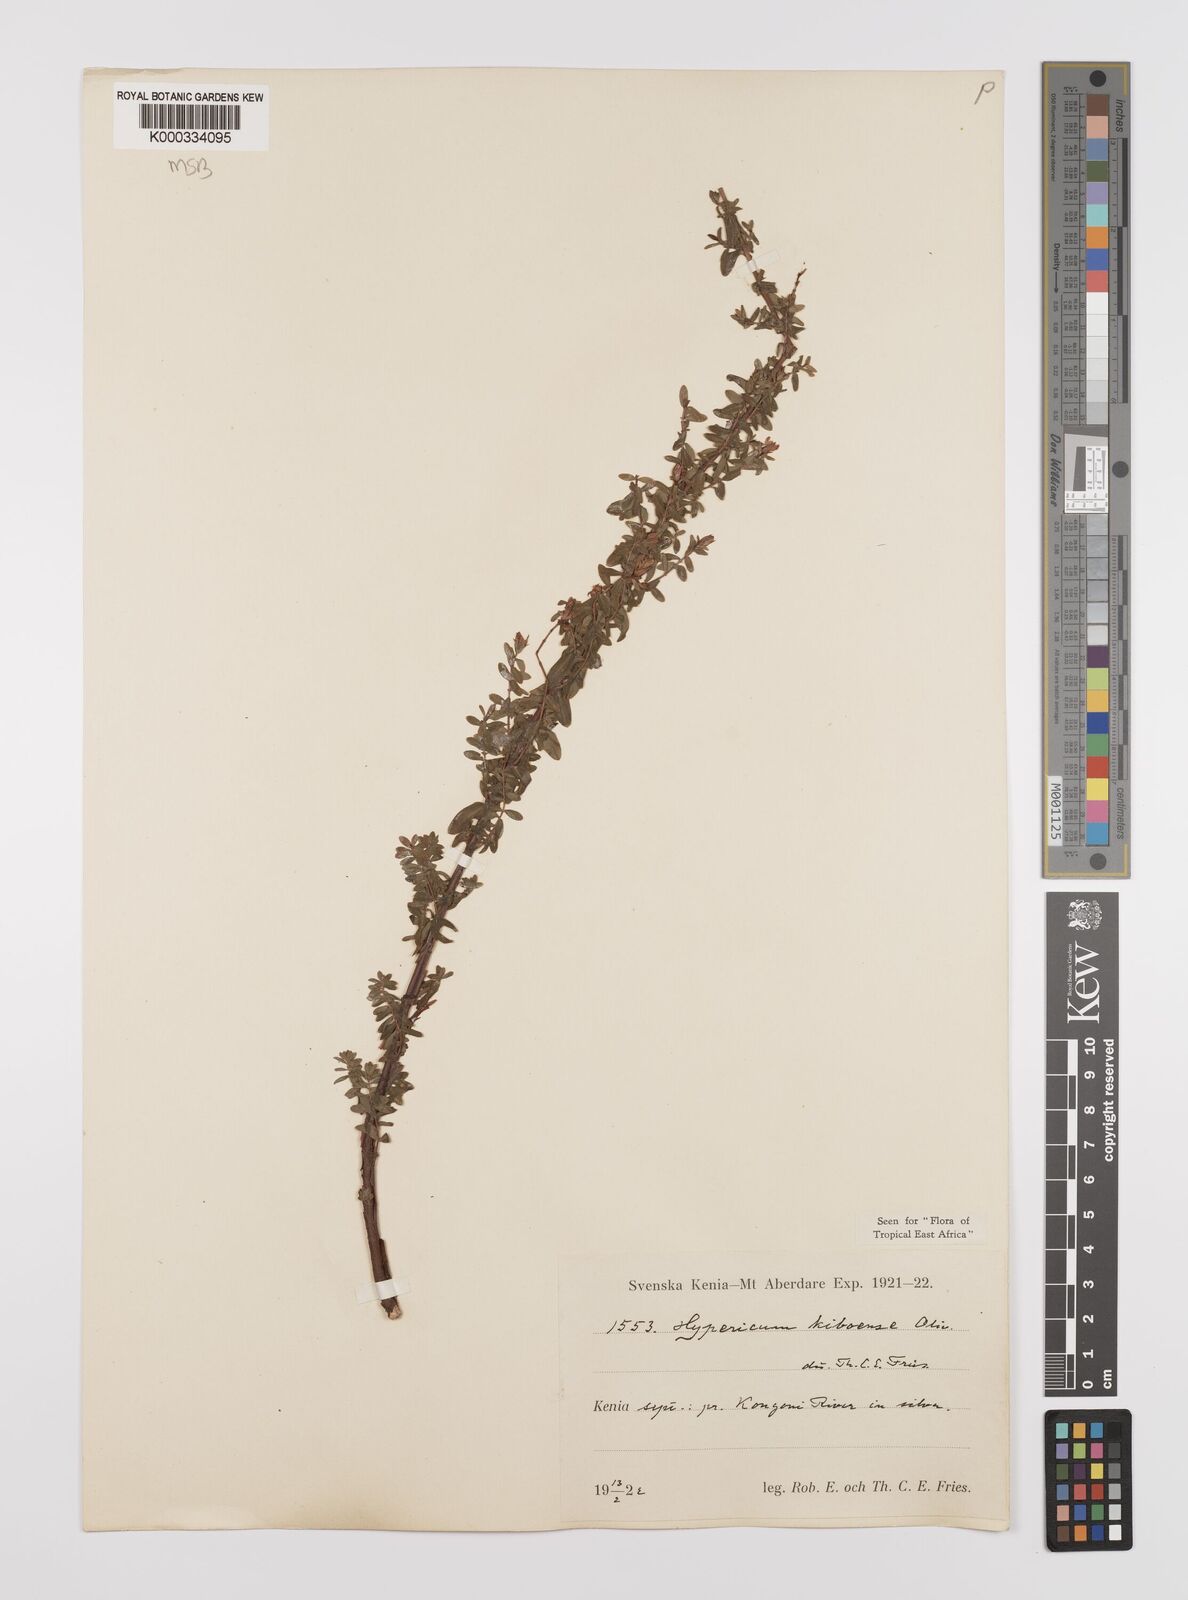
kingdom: Plantae
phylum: Tracheophyta
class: Magnoliopsida
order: Malpighiales
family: Hypericaceae
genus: Hypericum
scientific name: Hypericum kiboense
